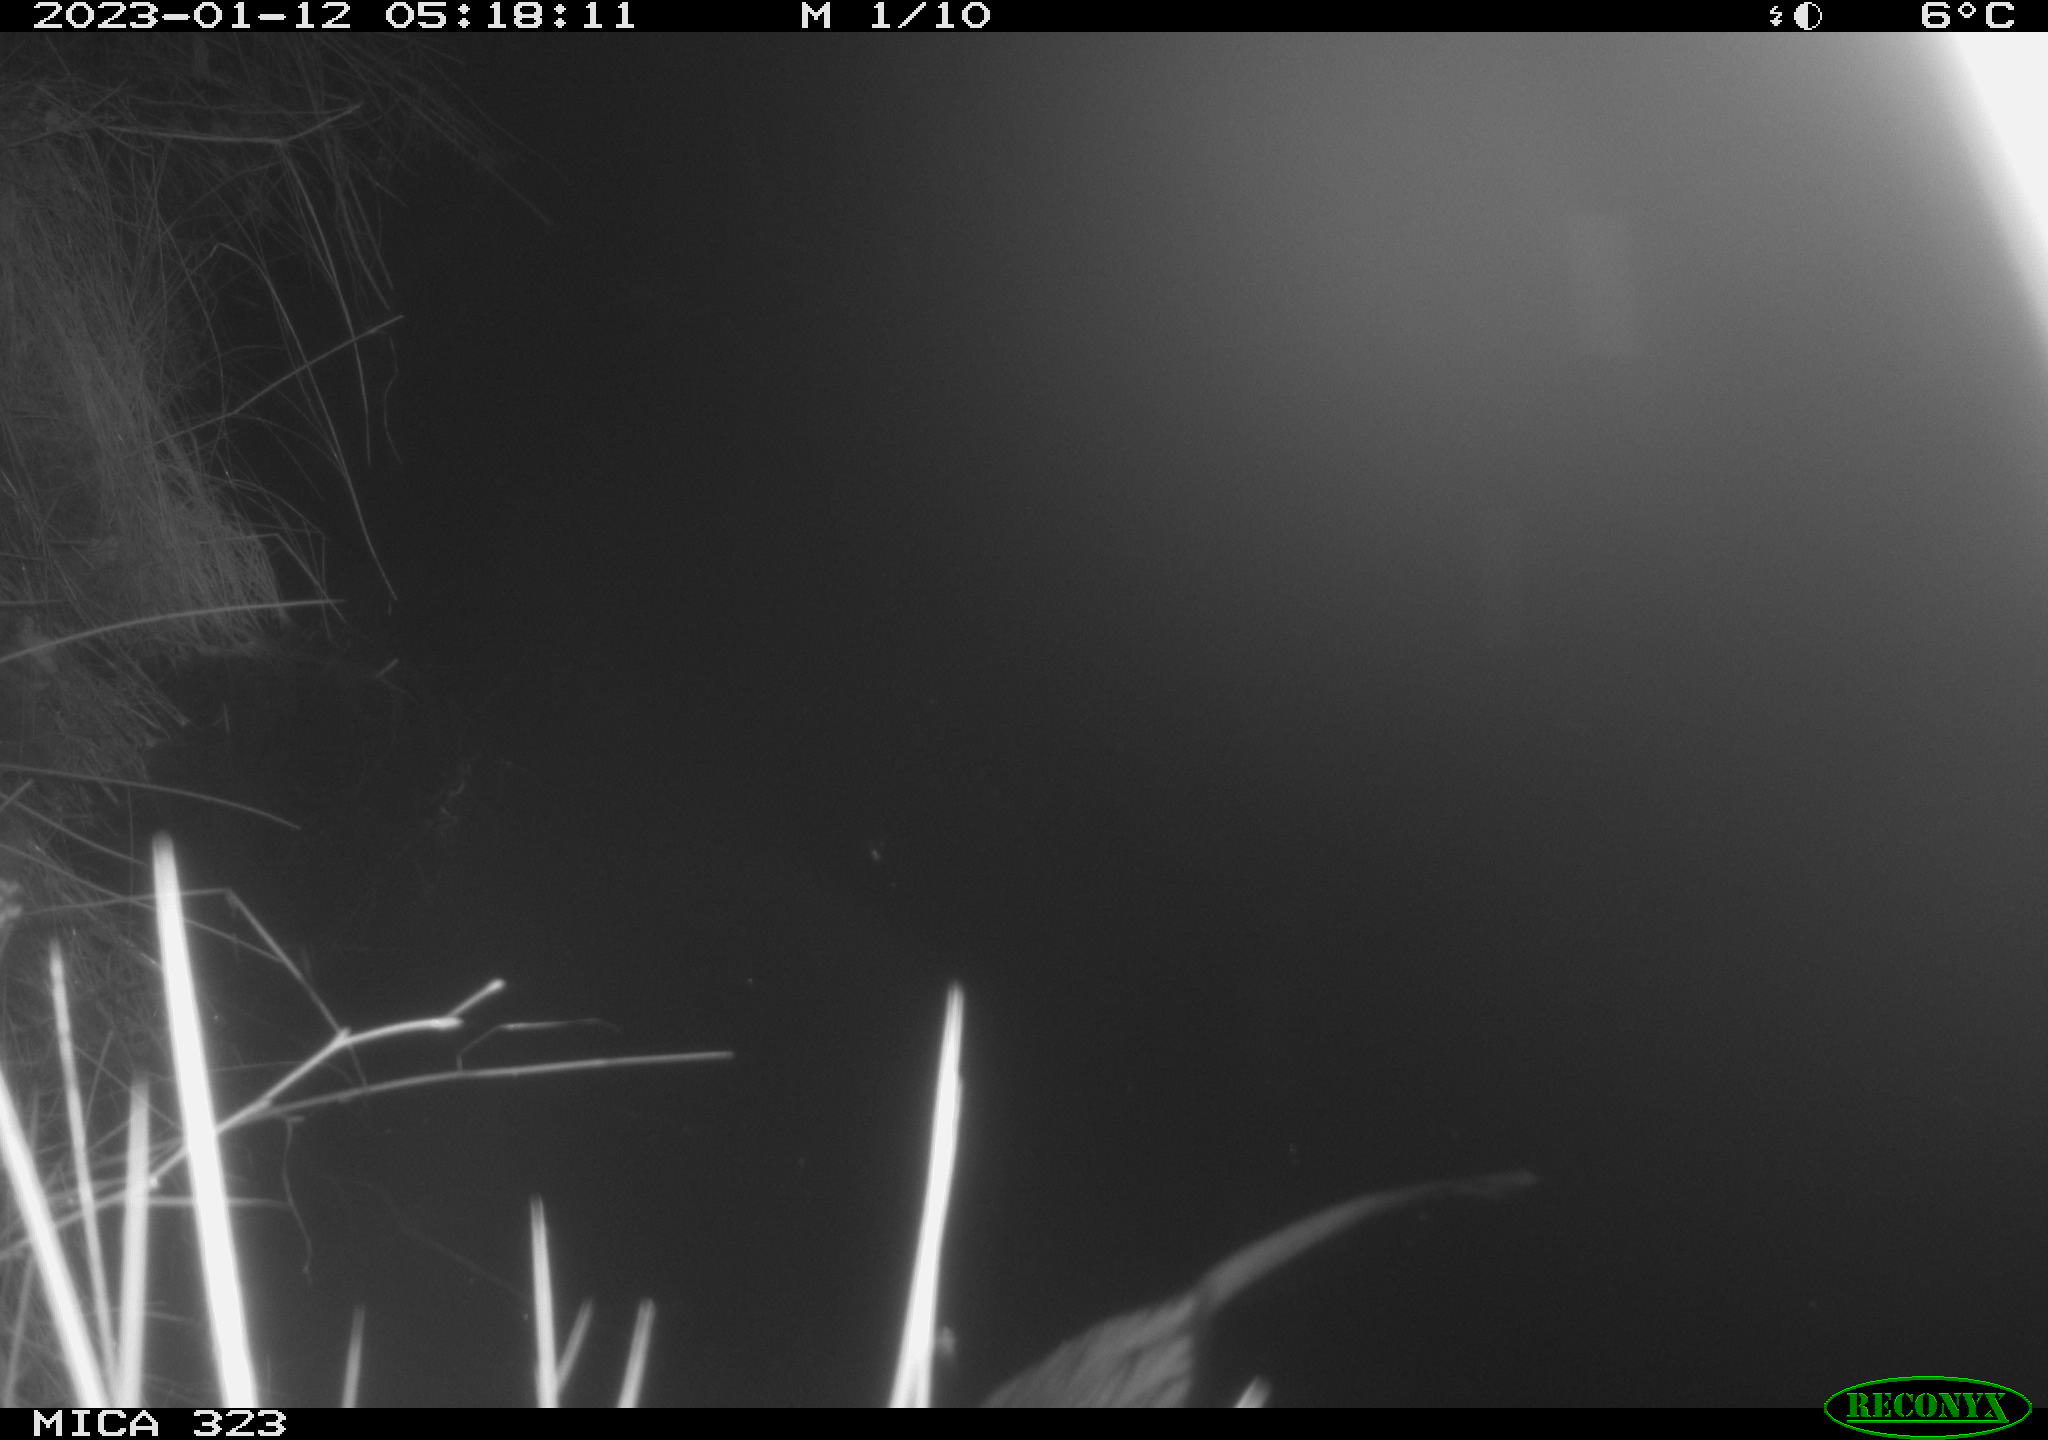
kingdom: Animalia
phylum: Chordata
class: Mammalia
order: Rodentia
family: Cricetidae
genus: Ondatra
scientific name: Ondatra zibethicus
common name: Muskrat
